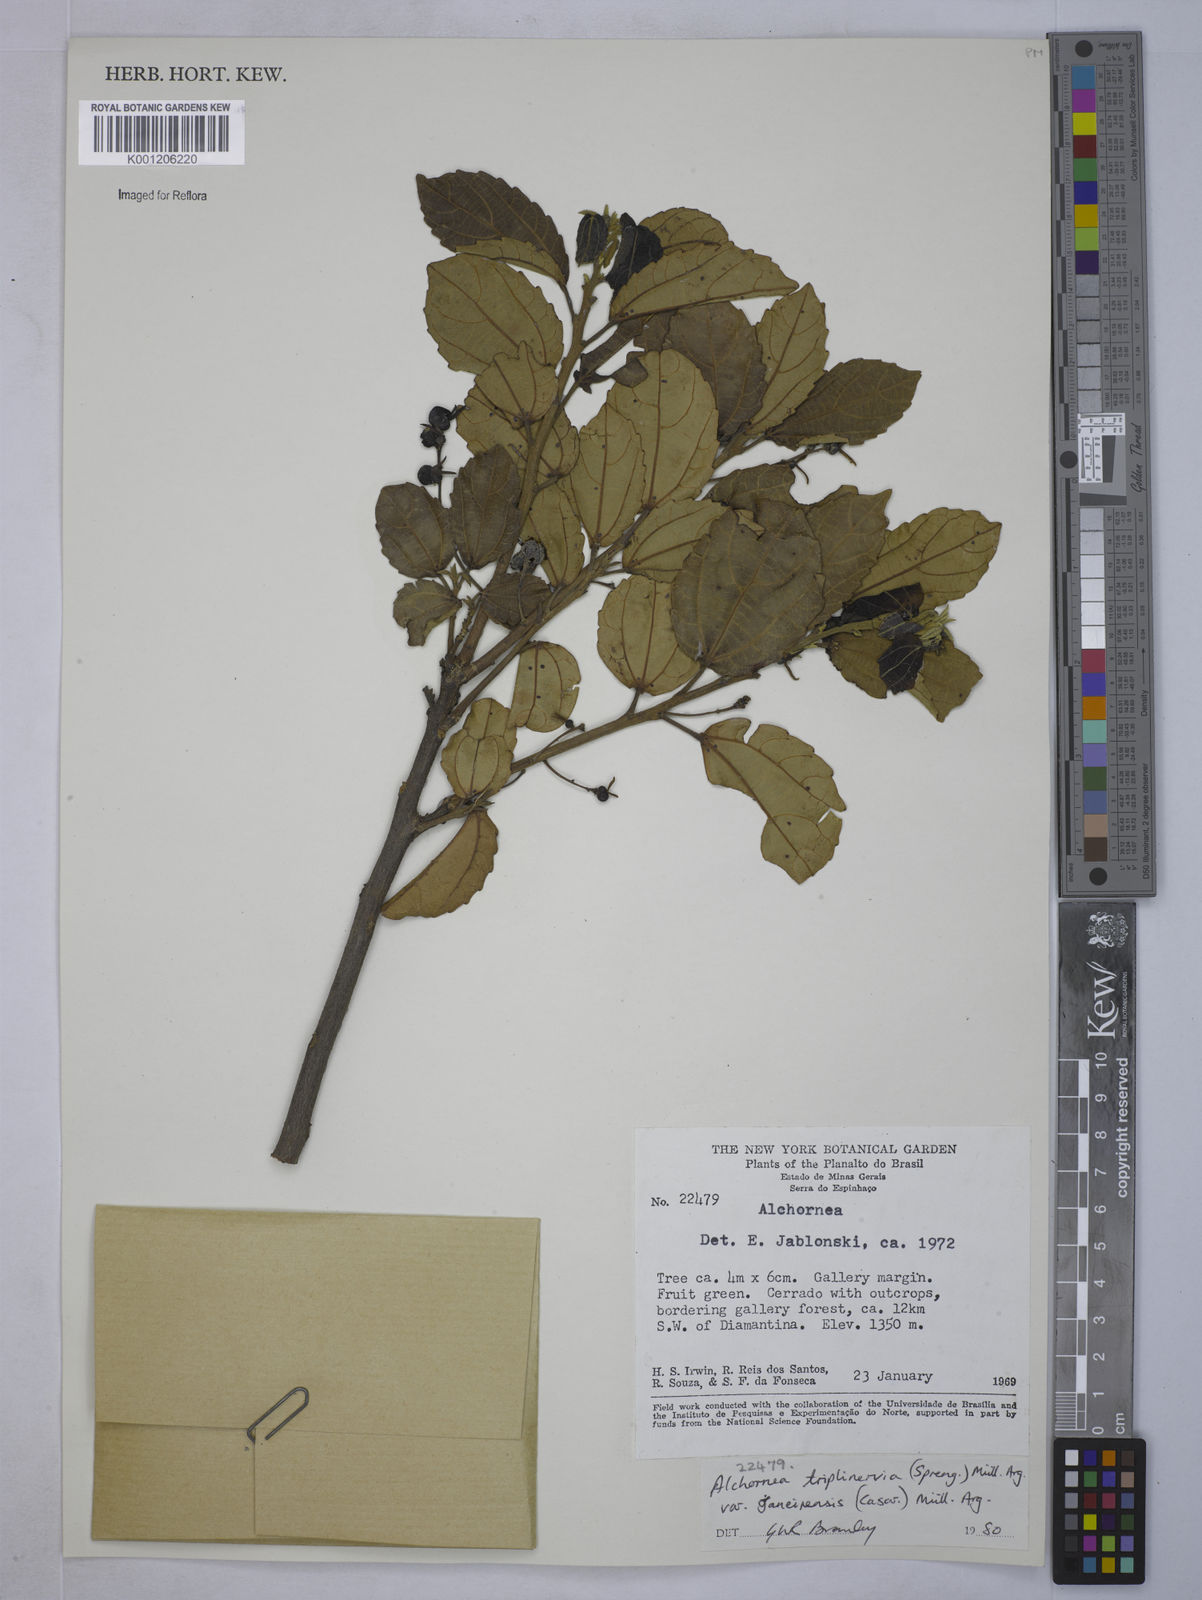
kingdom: Plantae
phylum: Tracheophyta
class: Magnoliopsida
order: Malpighiales
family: Euphorbiaceae
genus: Alchornea
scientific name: Alchornea
